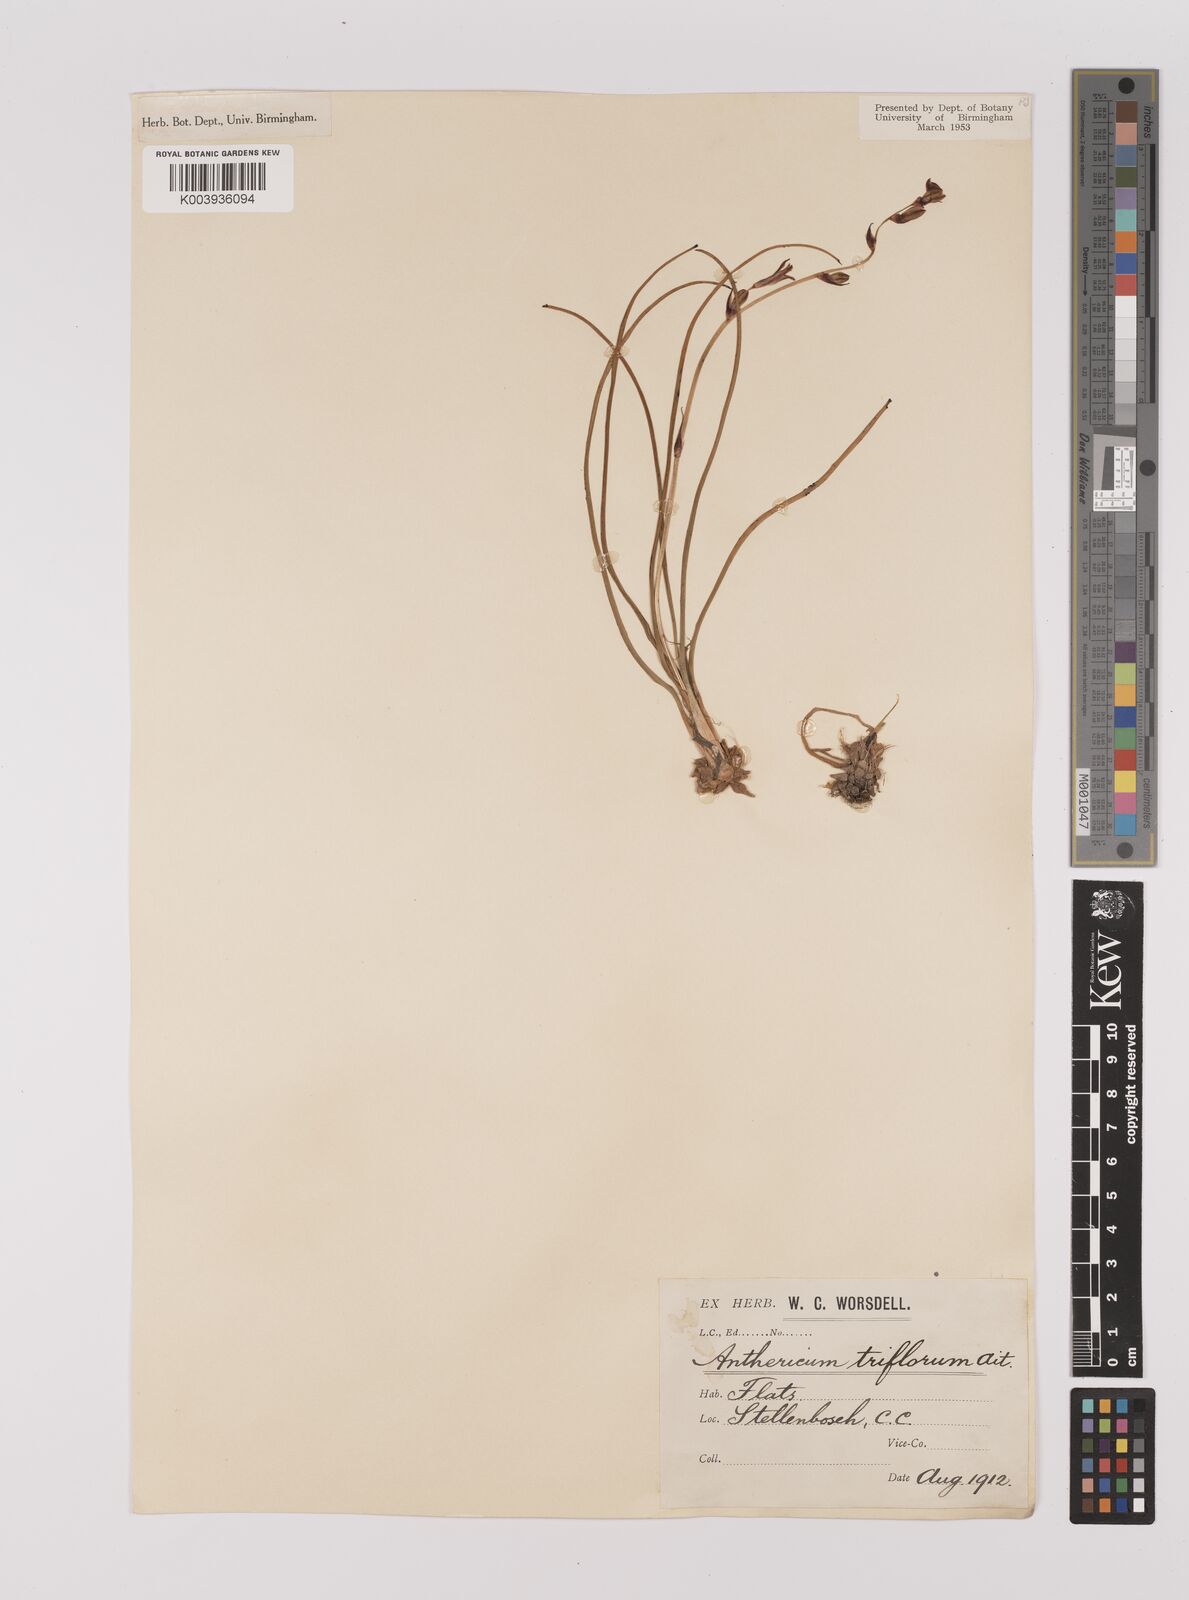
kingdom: Plantae
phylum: Tracheophyta
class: Liliopsida
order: Asparagales
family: Asparagaceae
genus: Chlorophytum
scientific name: Chlorophytum triflorum
